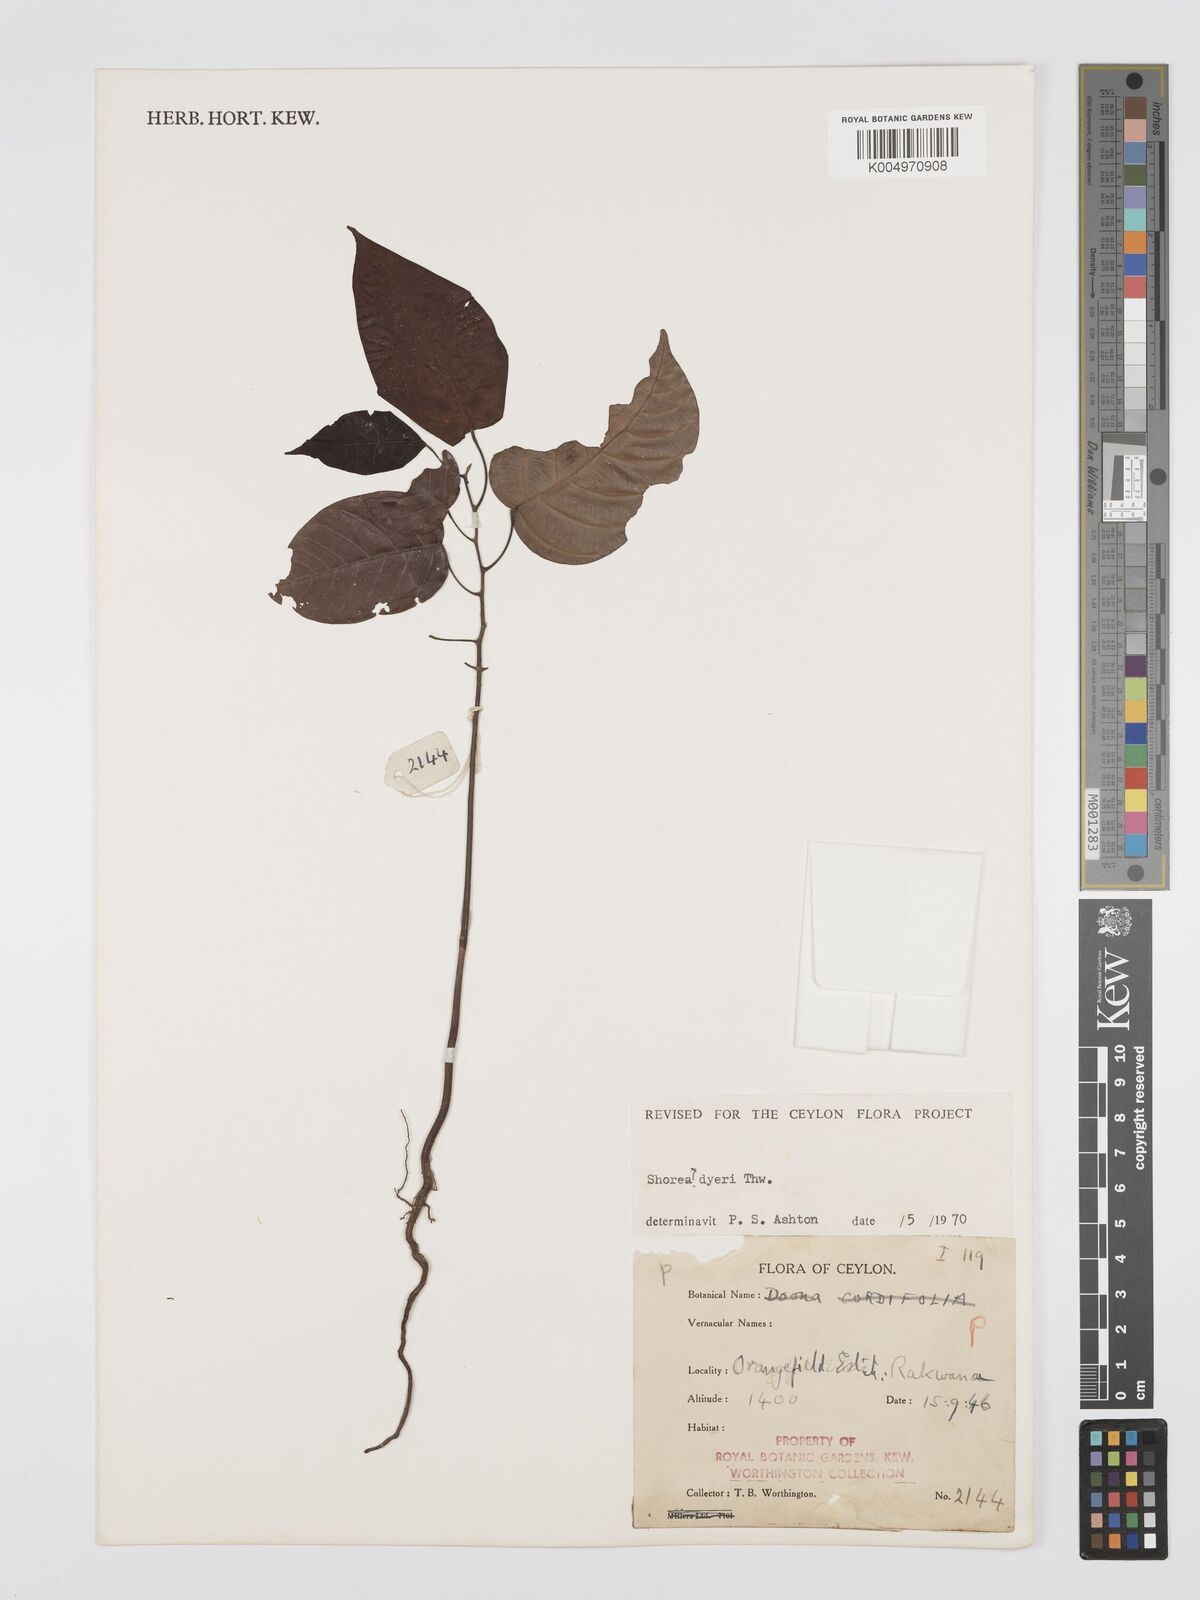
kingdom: Plantae
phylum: Tracheophyta
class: Magnoliopsida
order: Malvales
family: Dipterocarpaceae
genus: Shorea
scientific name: Shorea dyeri
